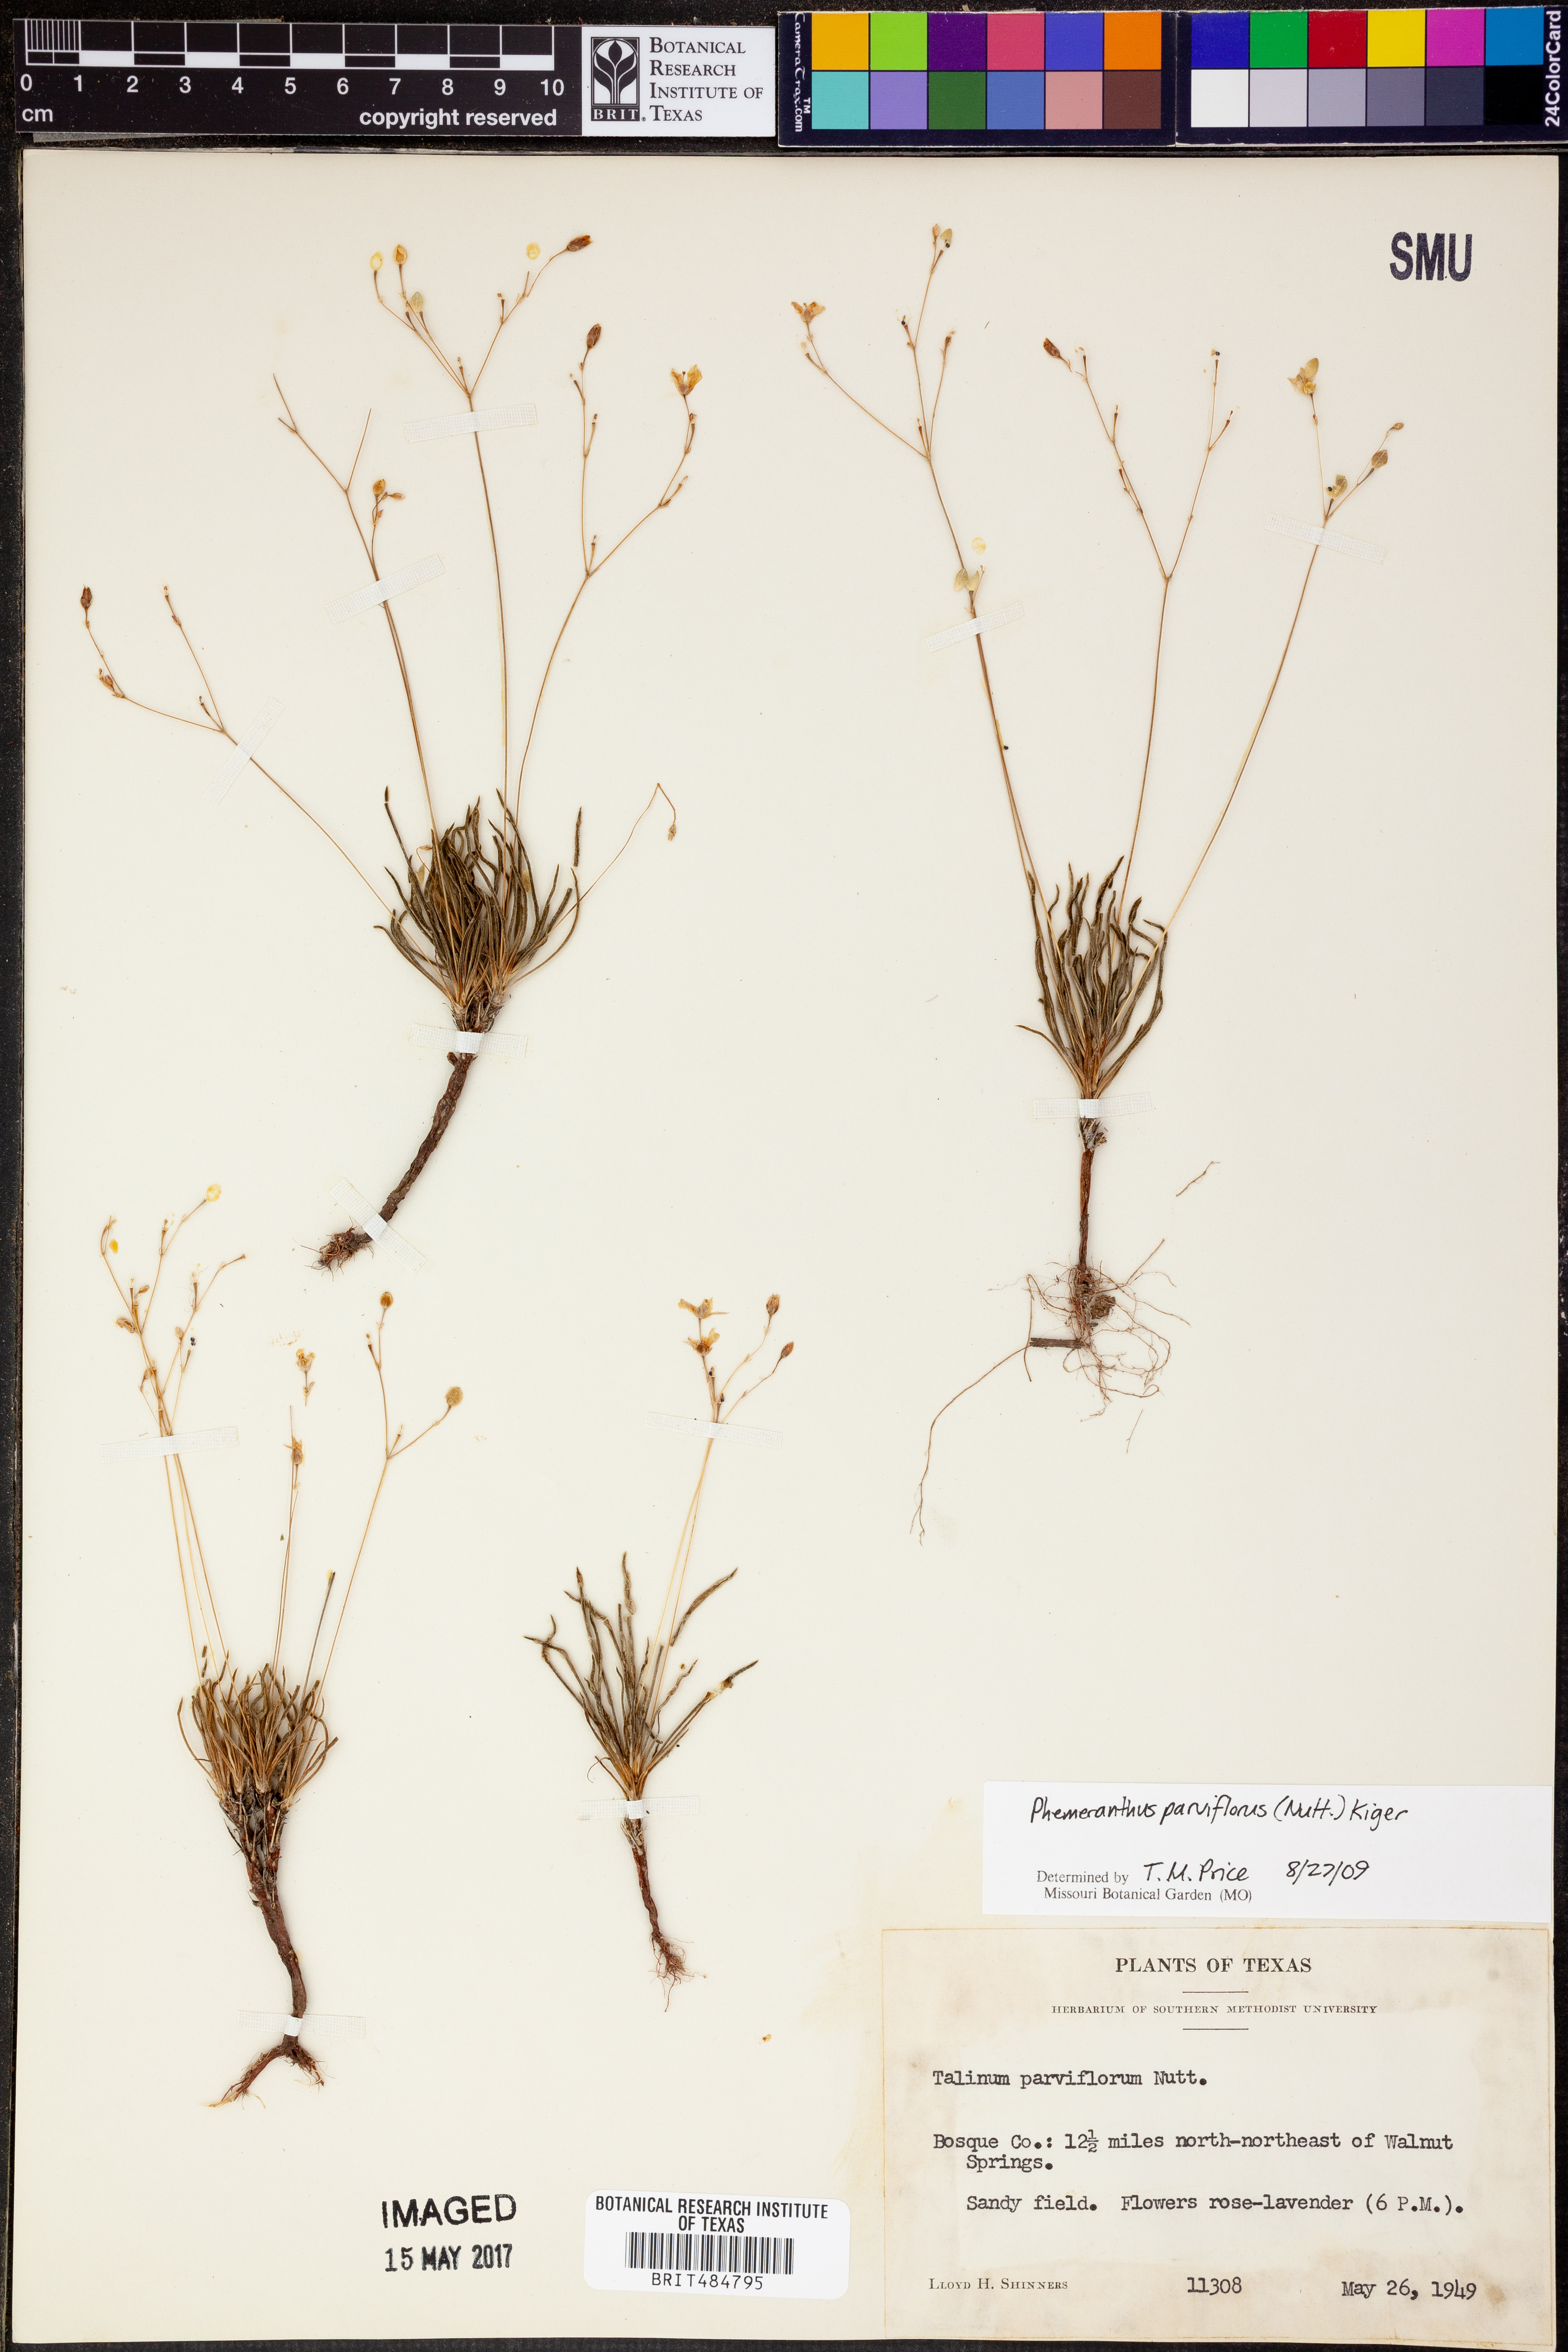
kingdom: Plantae
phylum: Tracheophyta
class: Magnoliopsida
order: Caryophyllales
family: Montiaceae
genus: Phemeranthus
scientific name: Phemeranthus parviflorus
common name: Sunbright
